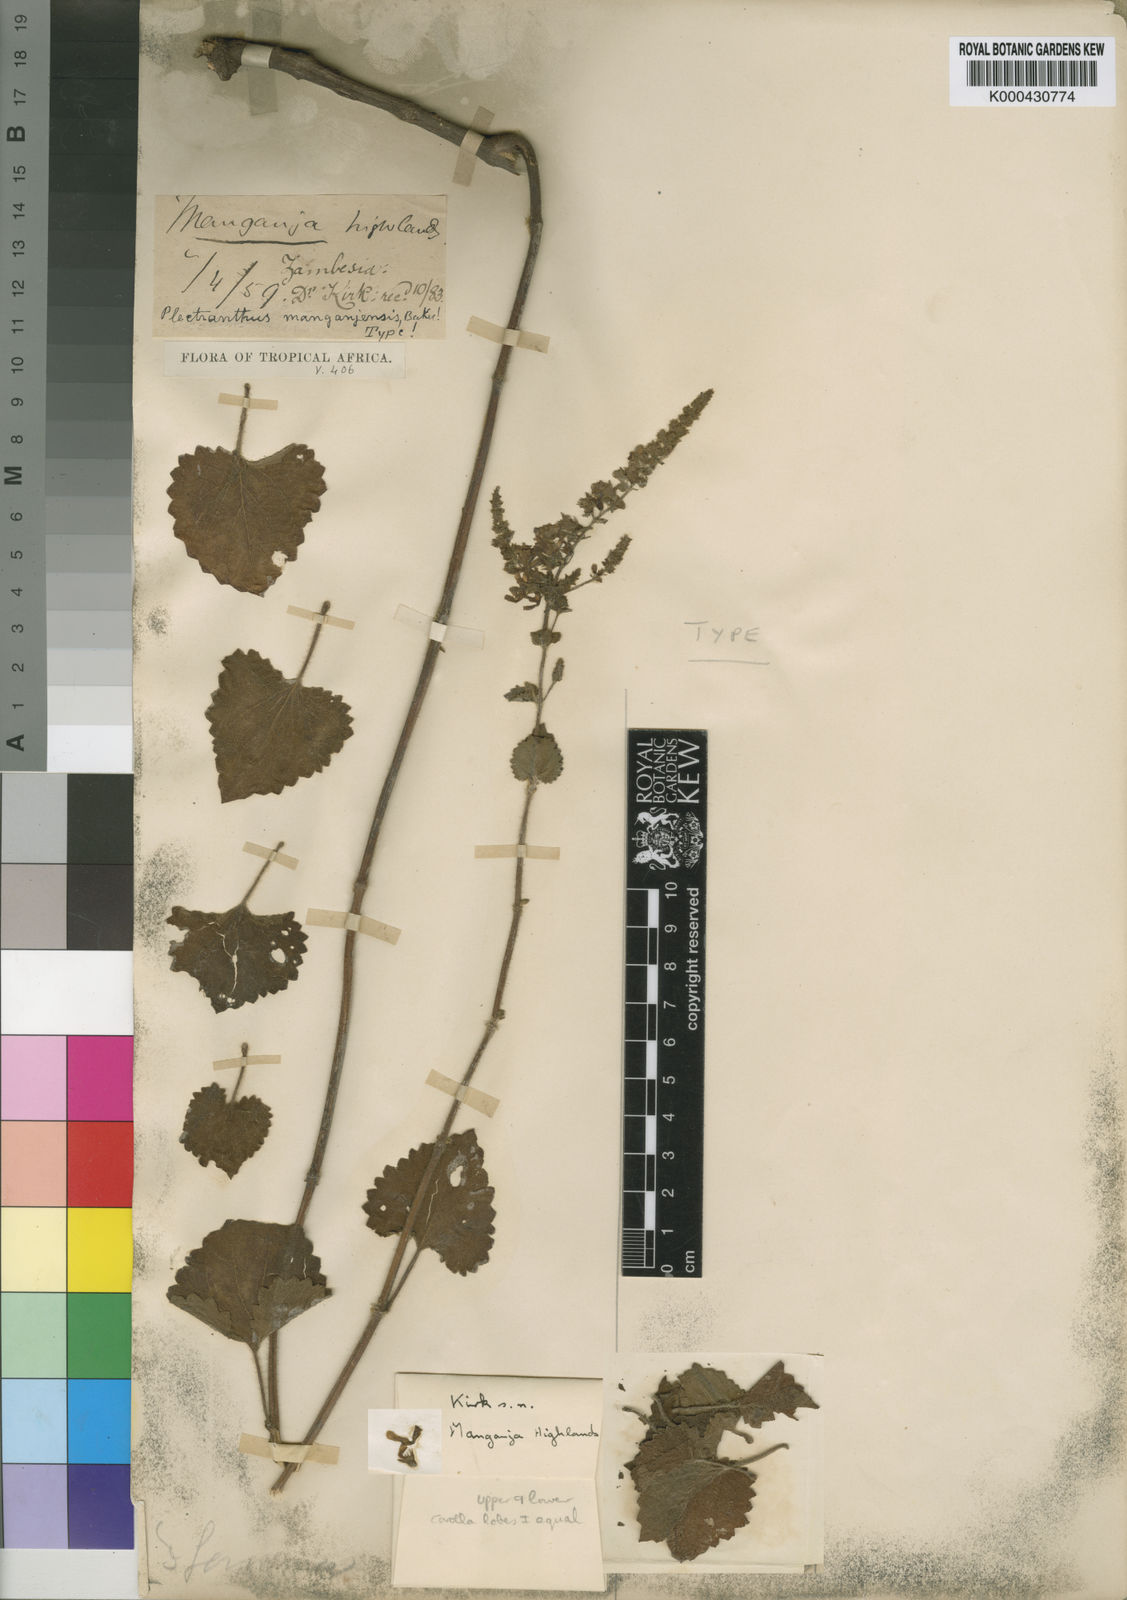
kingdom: Plantae
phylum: Tracheophyta
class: Magnoliopsida
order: Lamiales
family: Lamiaceae
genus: Equilabium
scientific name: Equilabium pubescens
